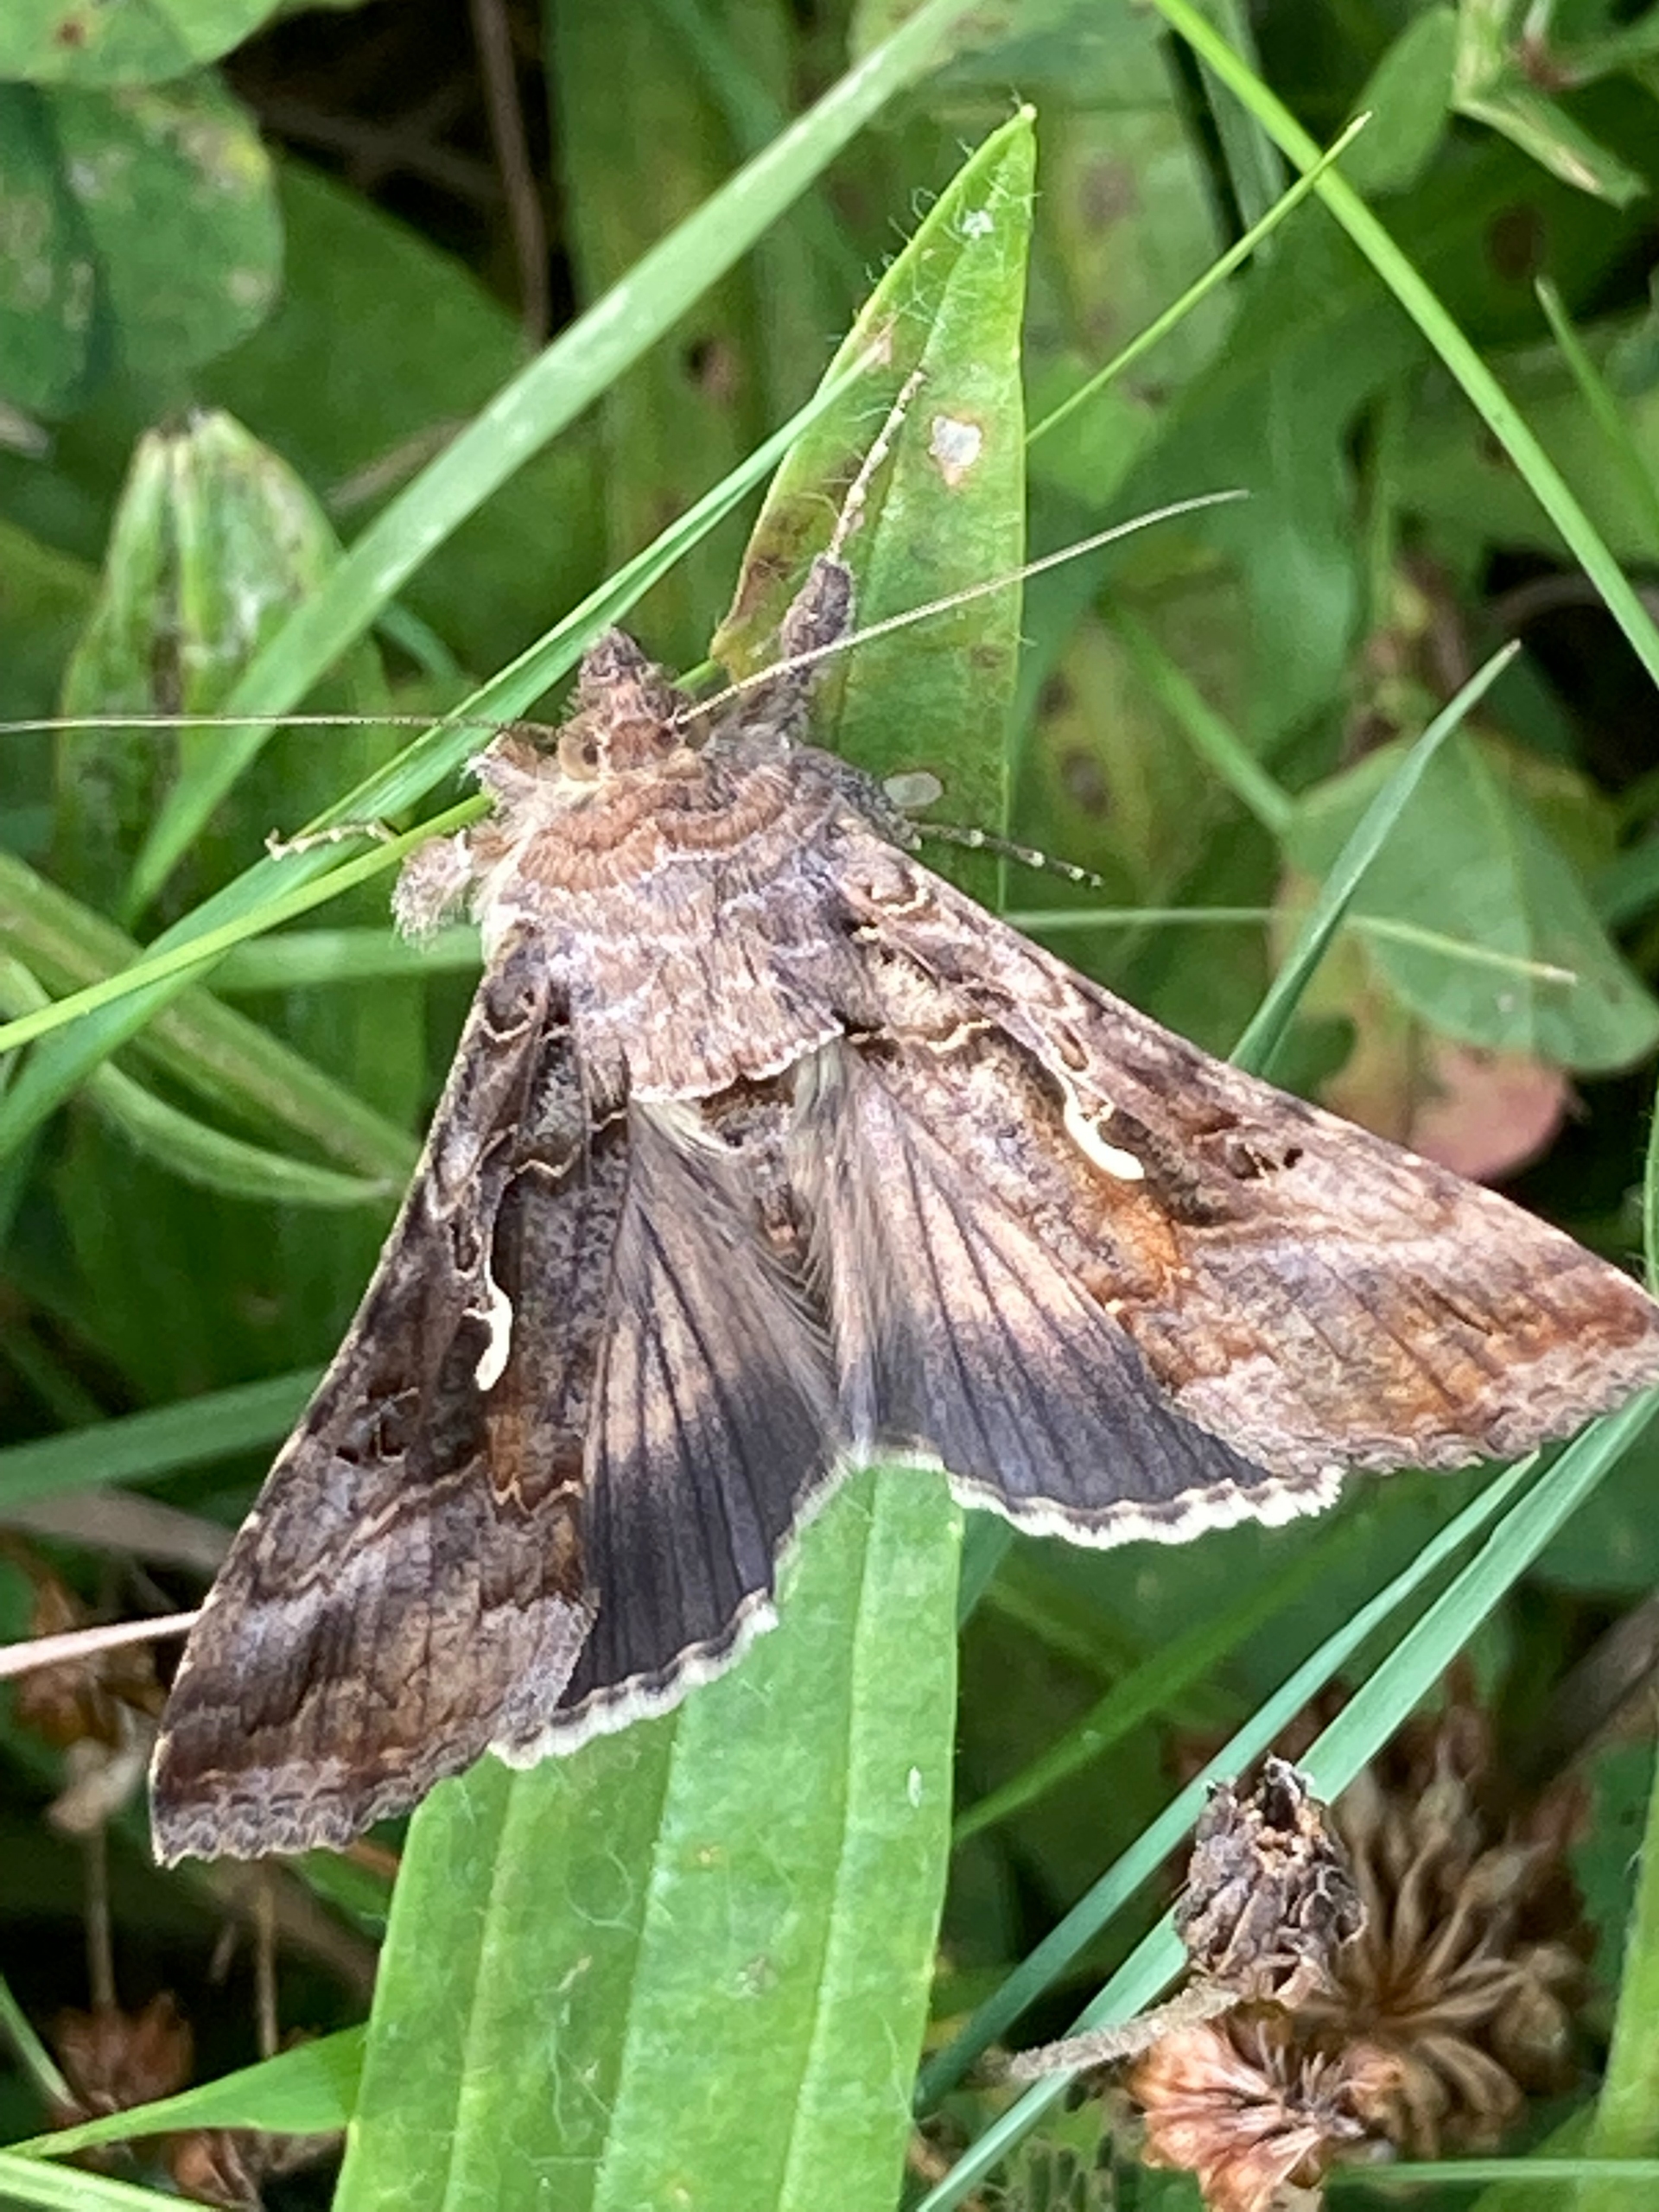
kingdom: Animalia
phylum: Arthropoda
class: Insecta
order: Lepidoptera
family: Noctuidae
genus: Autographa
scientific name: Autographa gamma
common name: Gammaugle
